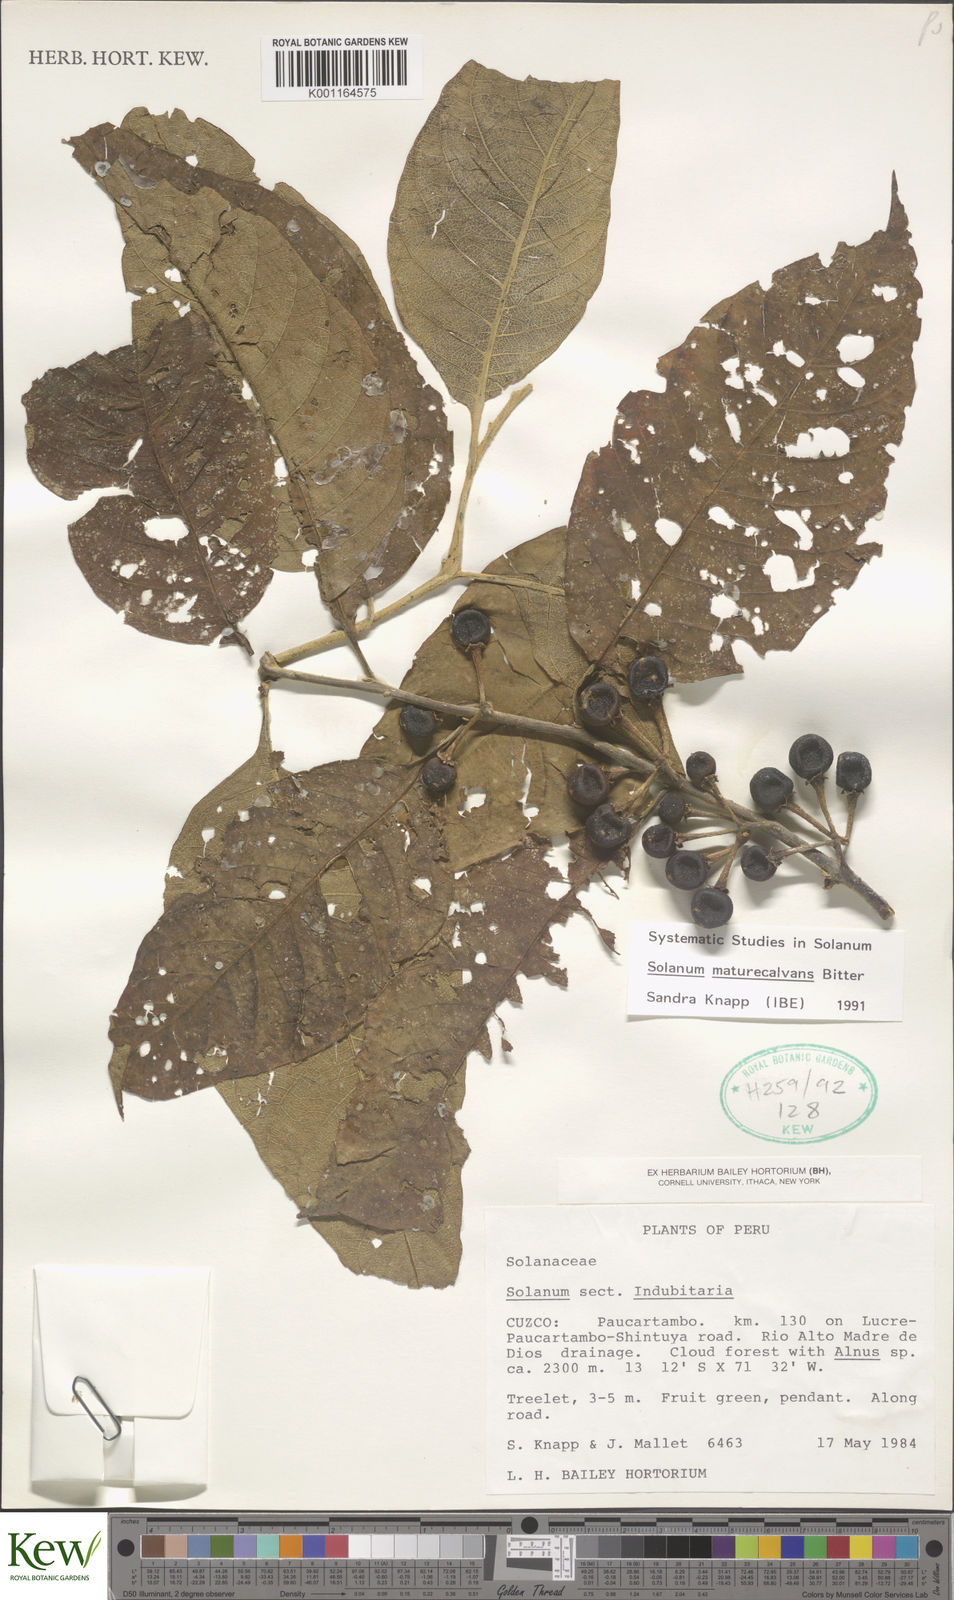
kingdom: Plantae
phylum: Tracheophyta
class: Magnoliopsida
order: Solanales
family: Solanaceae
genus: Solanum
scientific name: Solanum maturecalvans
